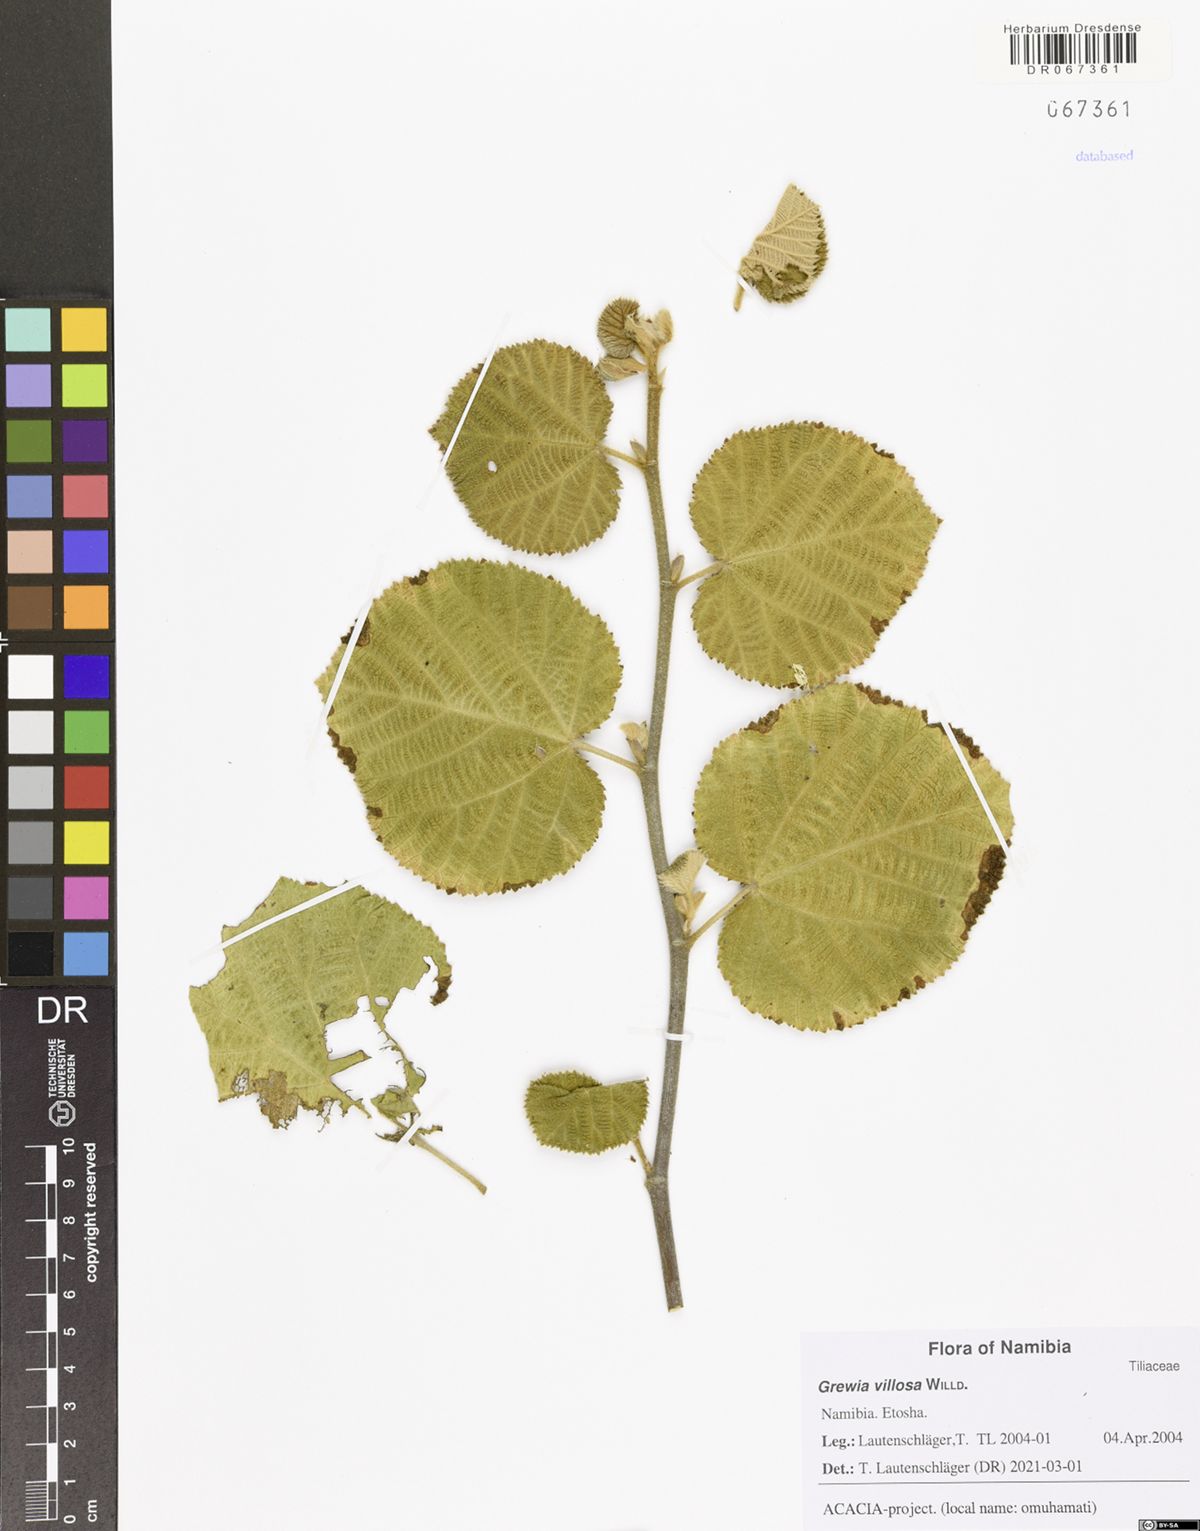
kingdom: Plantae
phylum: Tracheophyta
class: Magnoliopsida
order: Malvales
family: Malvaceae
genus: Grewia
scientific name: Grewia villosa
